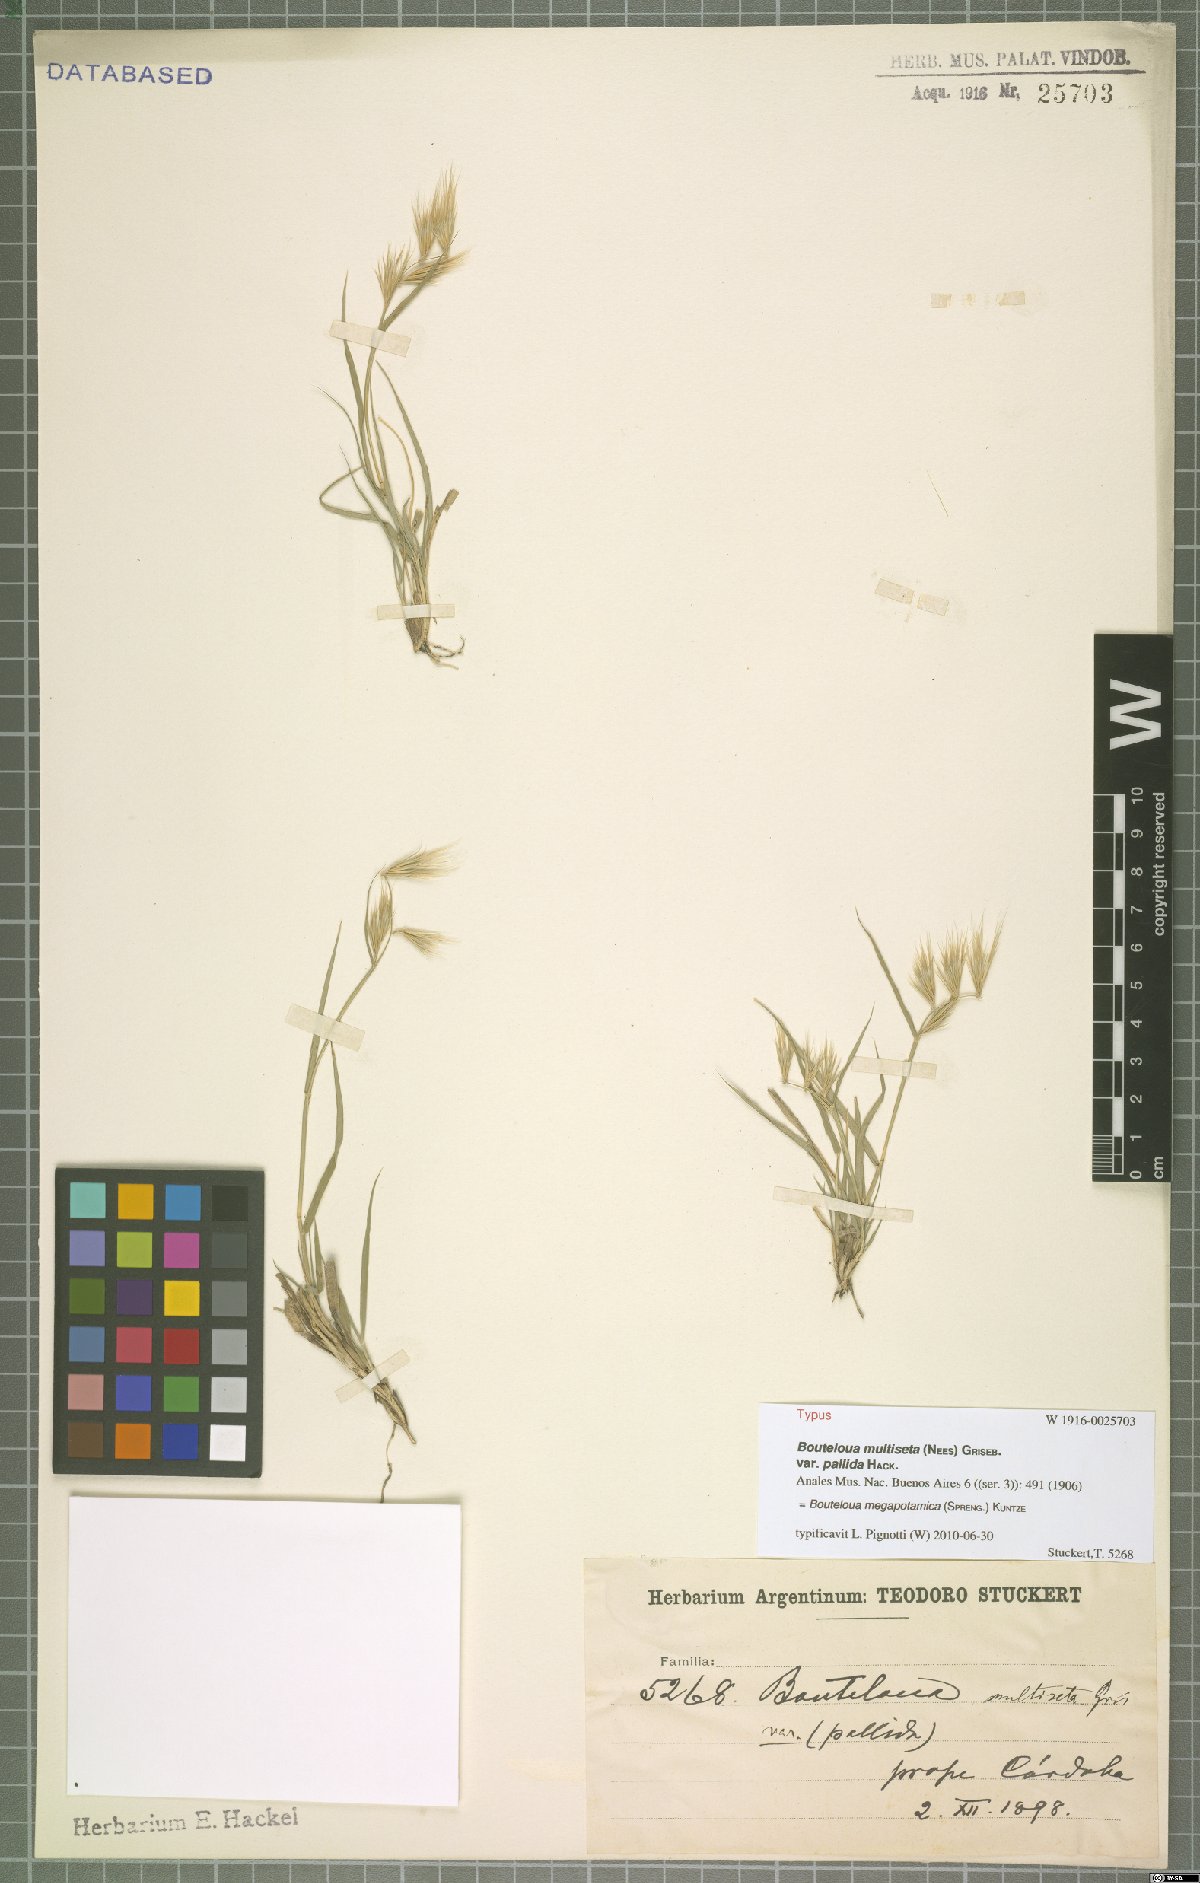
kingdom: Plantae
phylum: Tracheophyta
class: Liliopsida
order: Poales
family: Poaceae
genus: Bouteloua
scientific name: Bouteloua megapotamica
